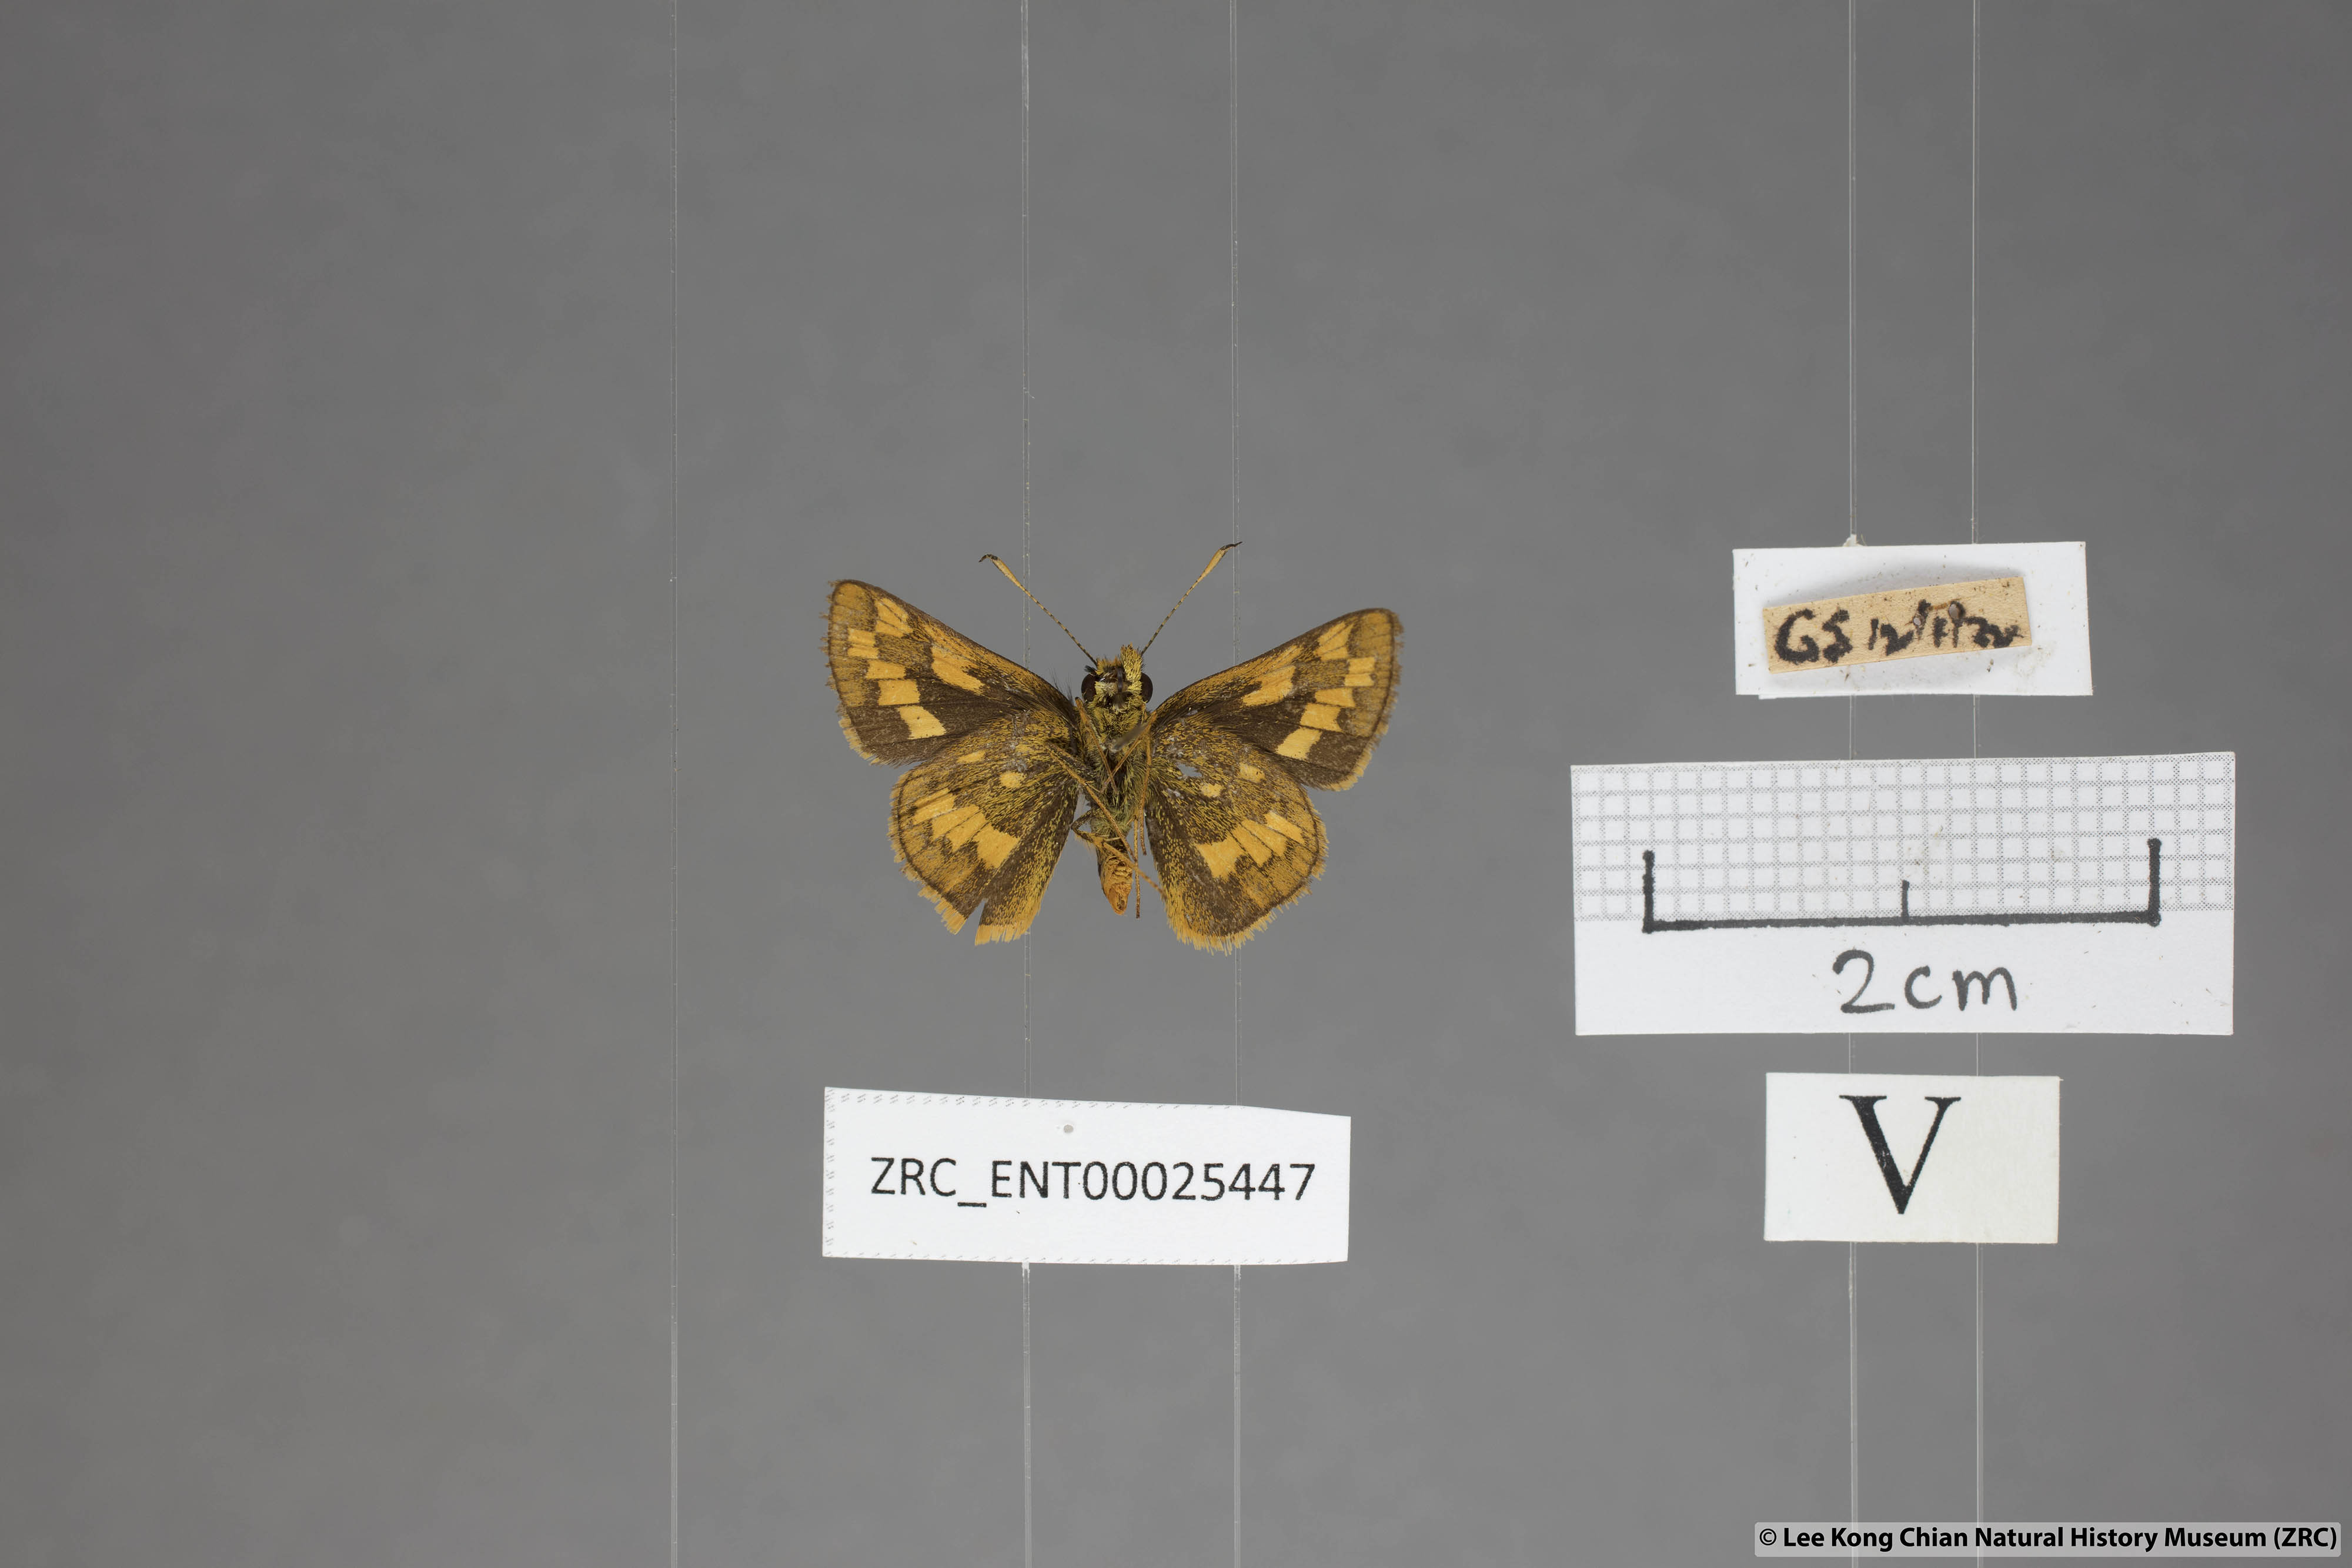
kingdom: Animalia
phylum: Arthropoda
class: Insecta
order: Lepidoptera
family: Hesperiidae
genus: Potanthus
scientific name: Potanthus omaha
